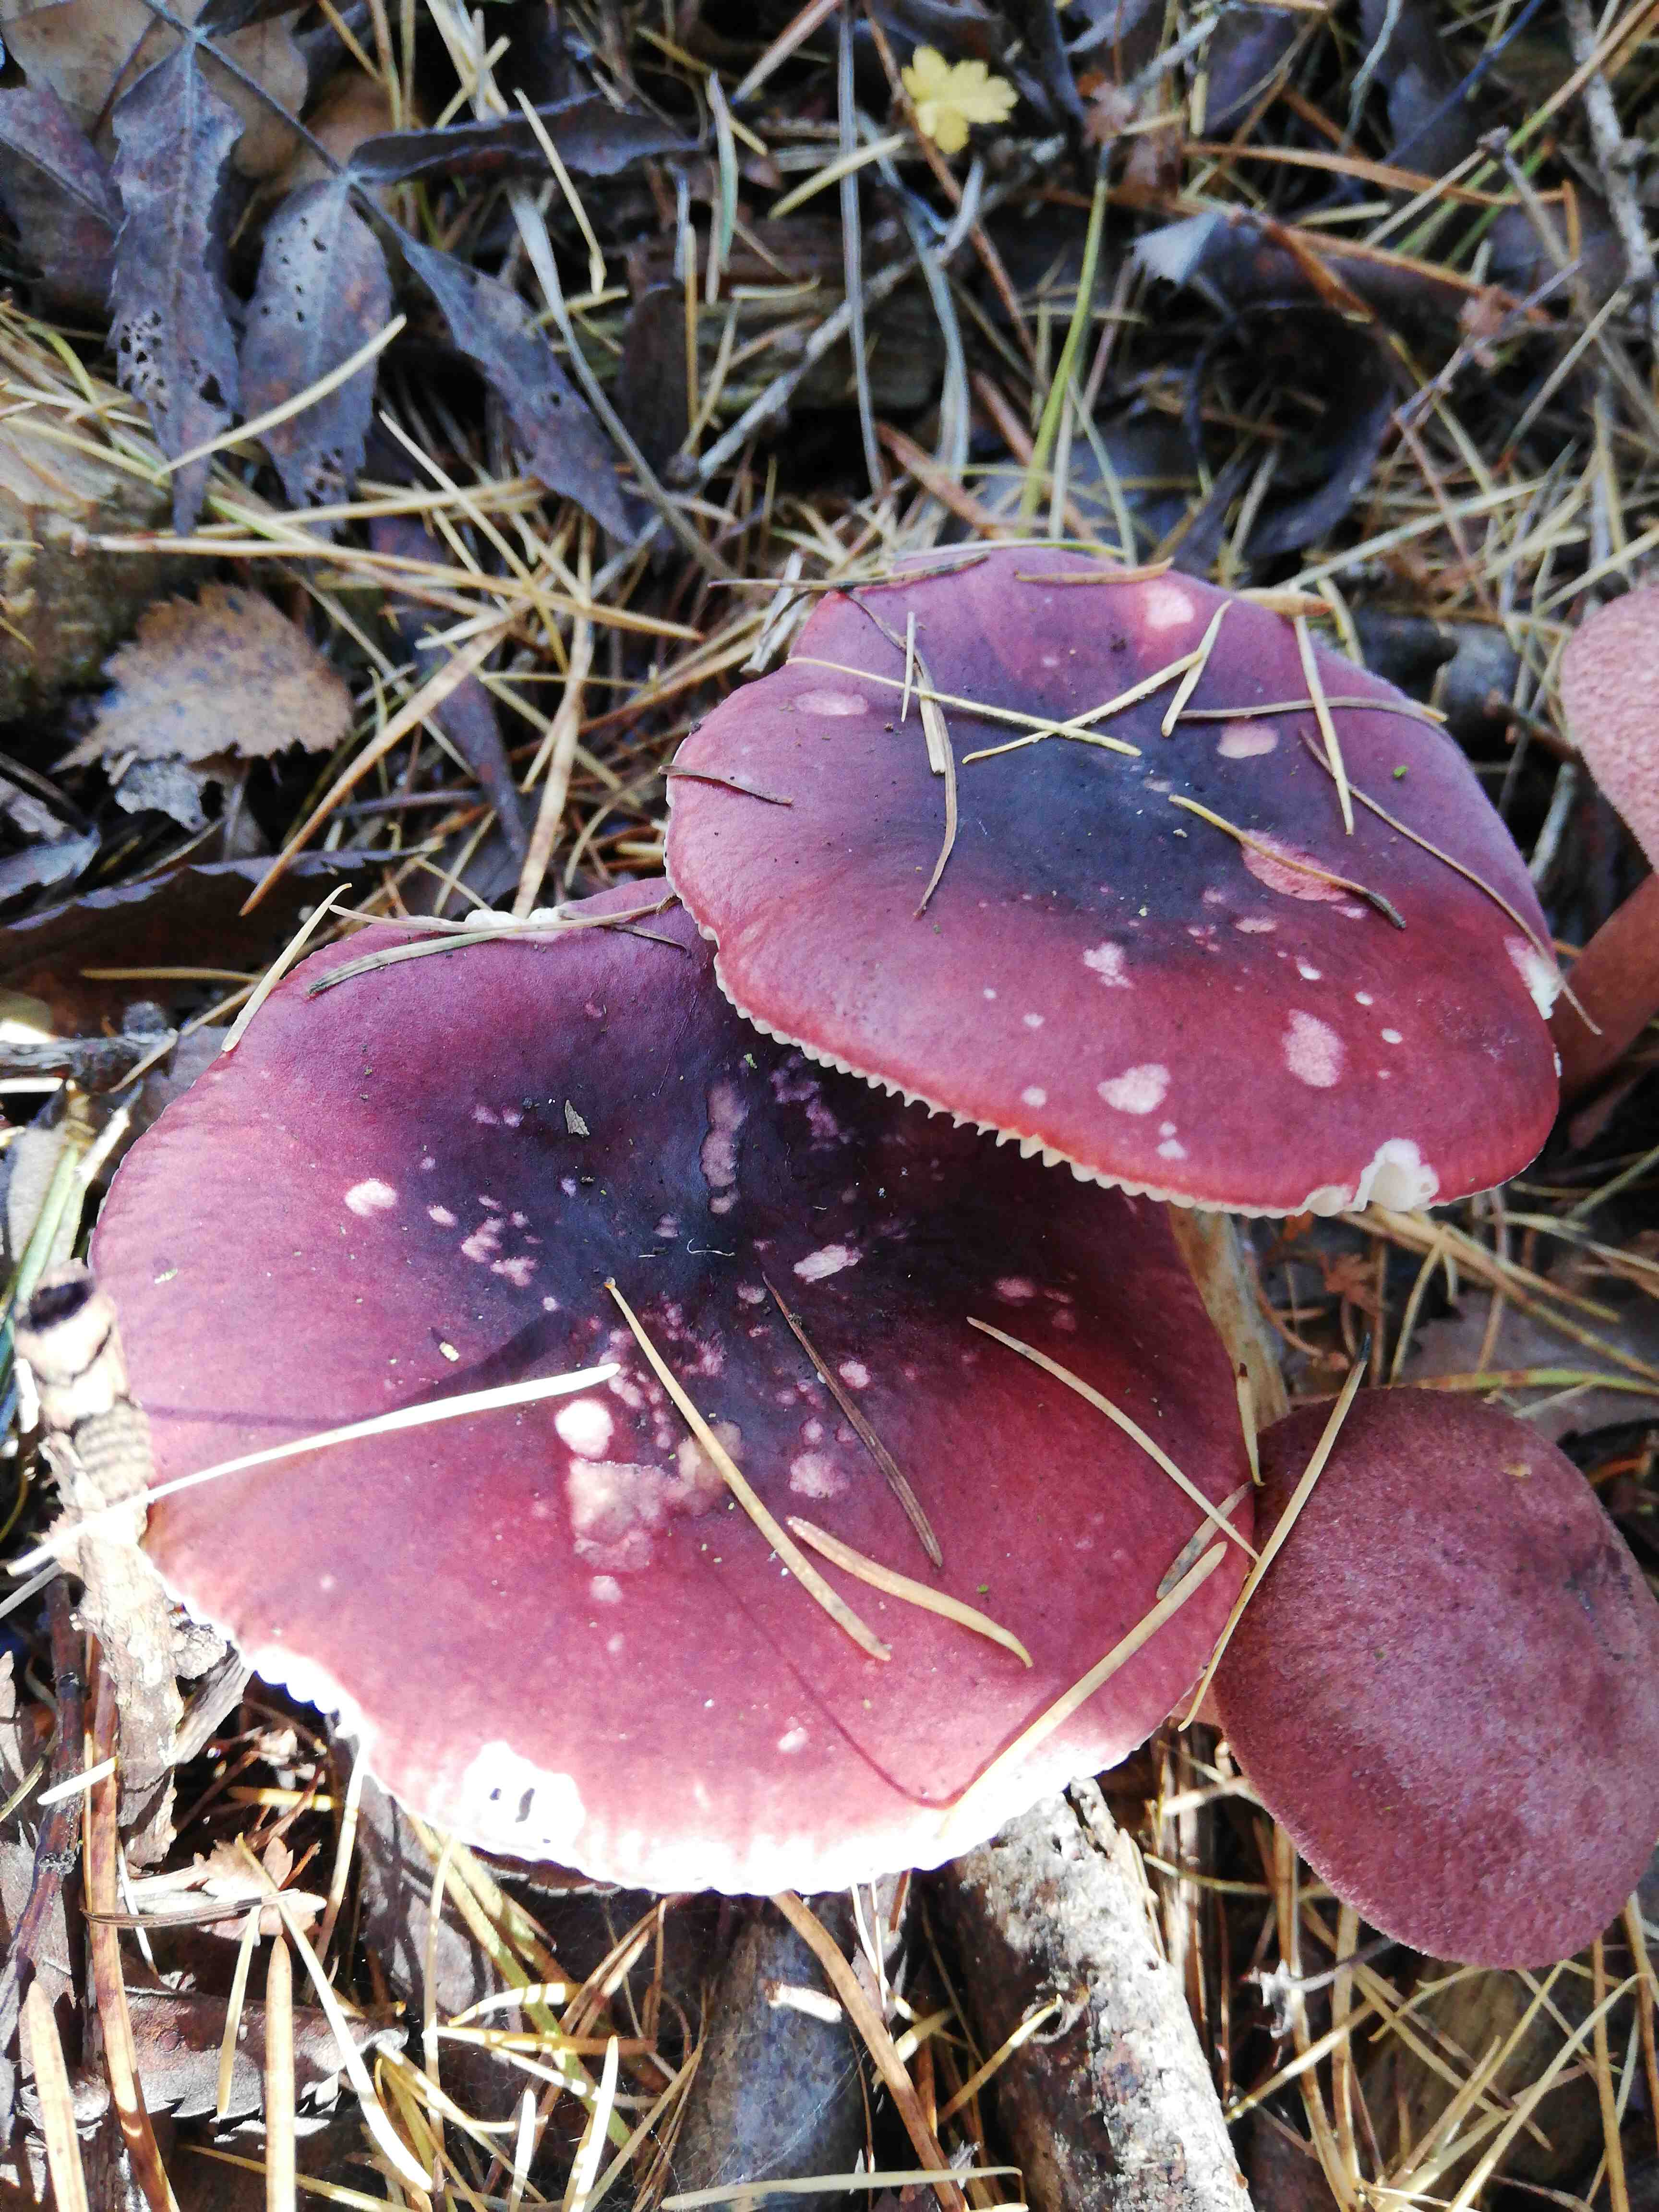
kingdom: Fungi
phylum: Basidiomycota
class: Agaricomycetes
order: Russulales
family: Russulaceae
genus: Russula
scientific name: Russula
